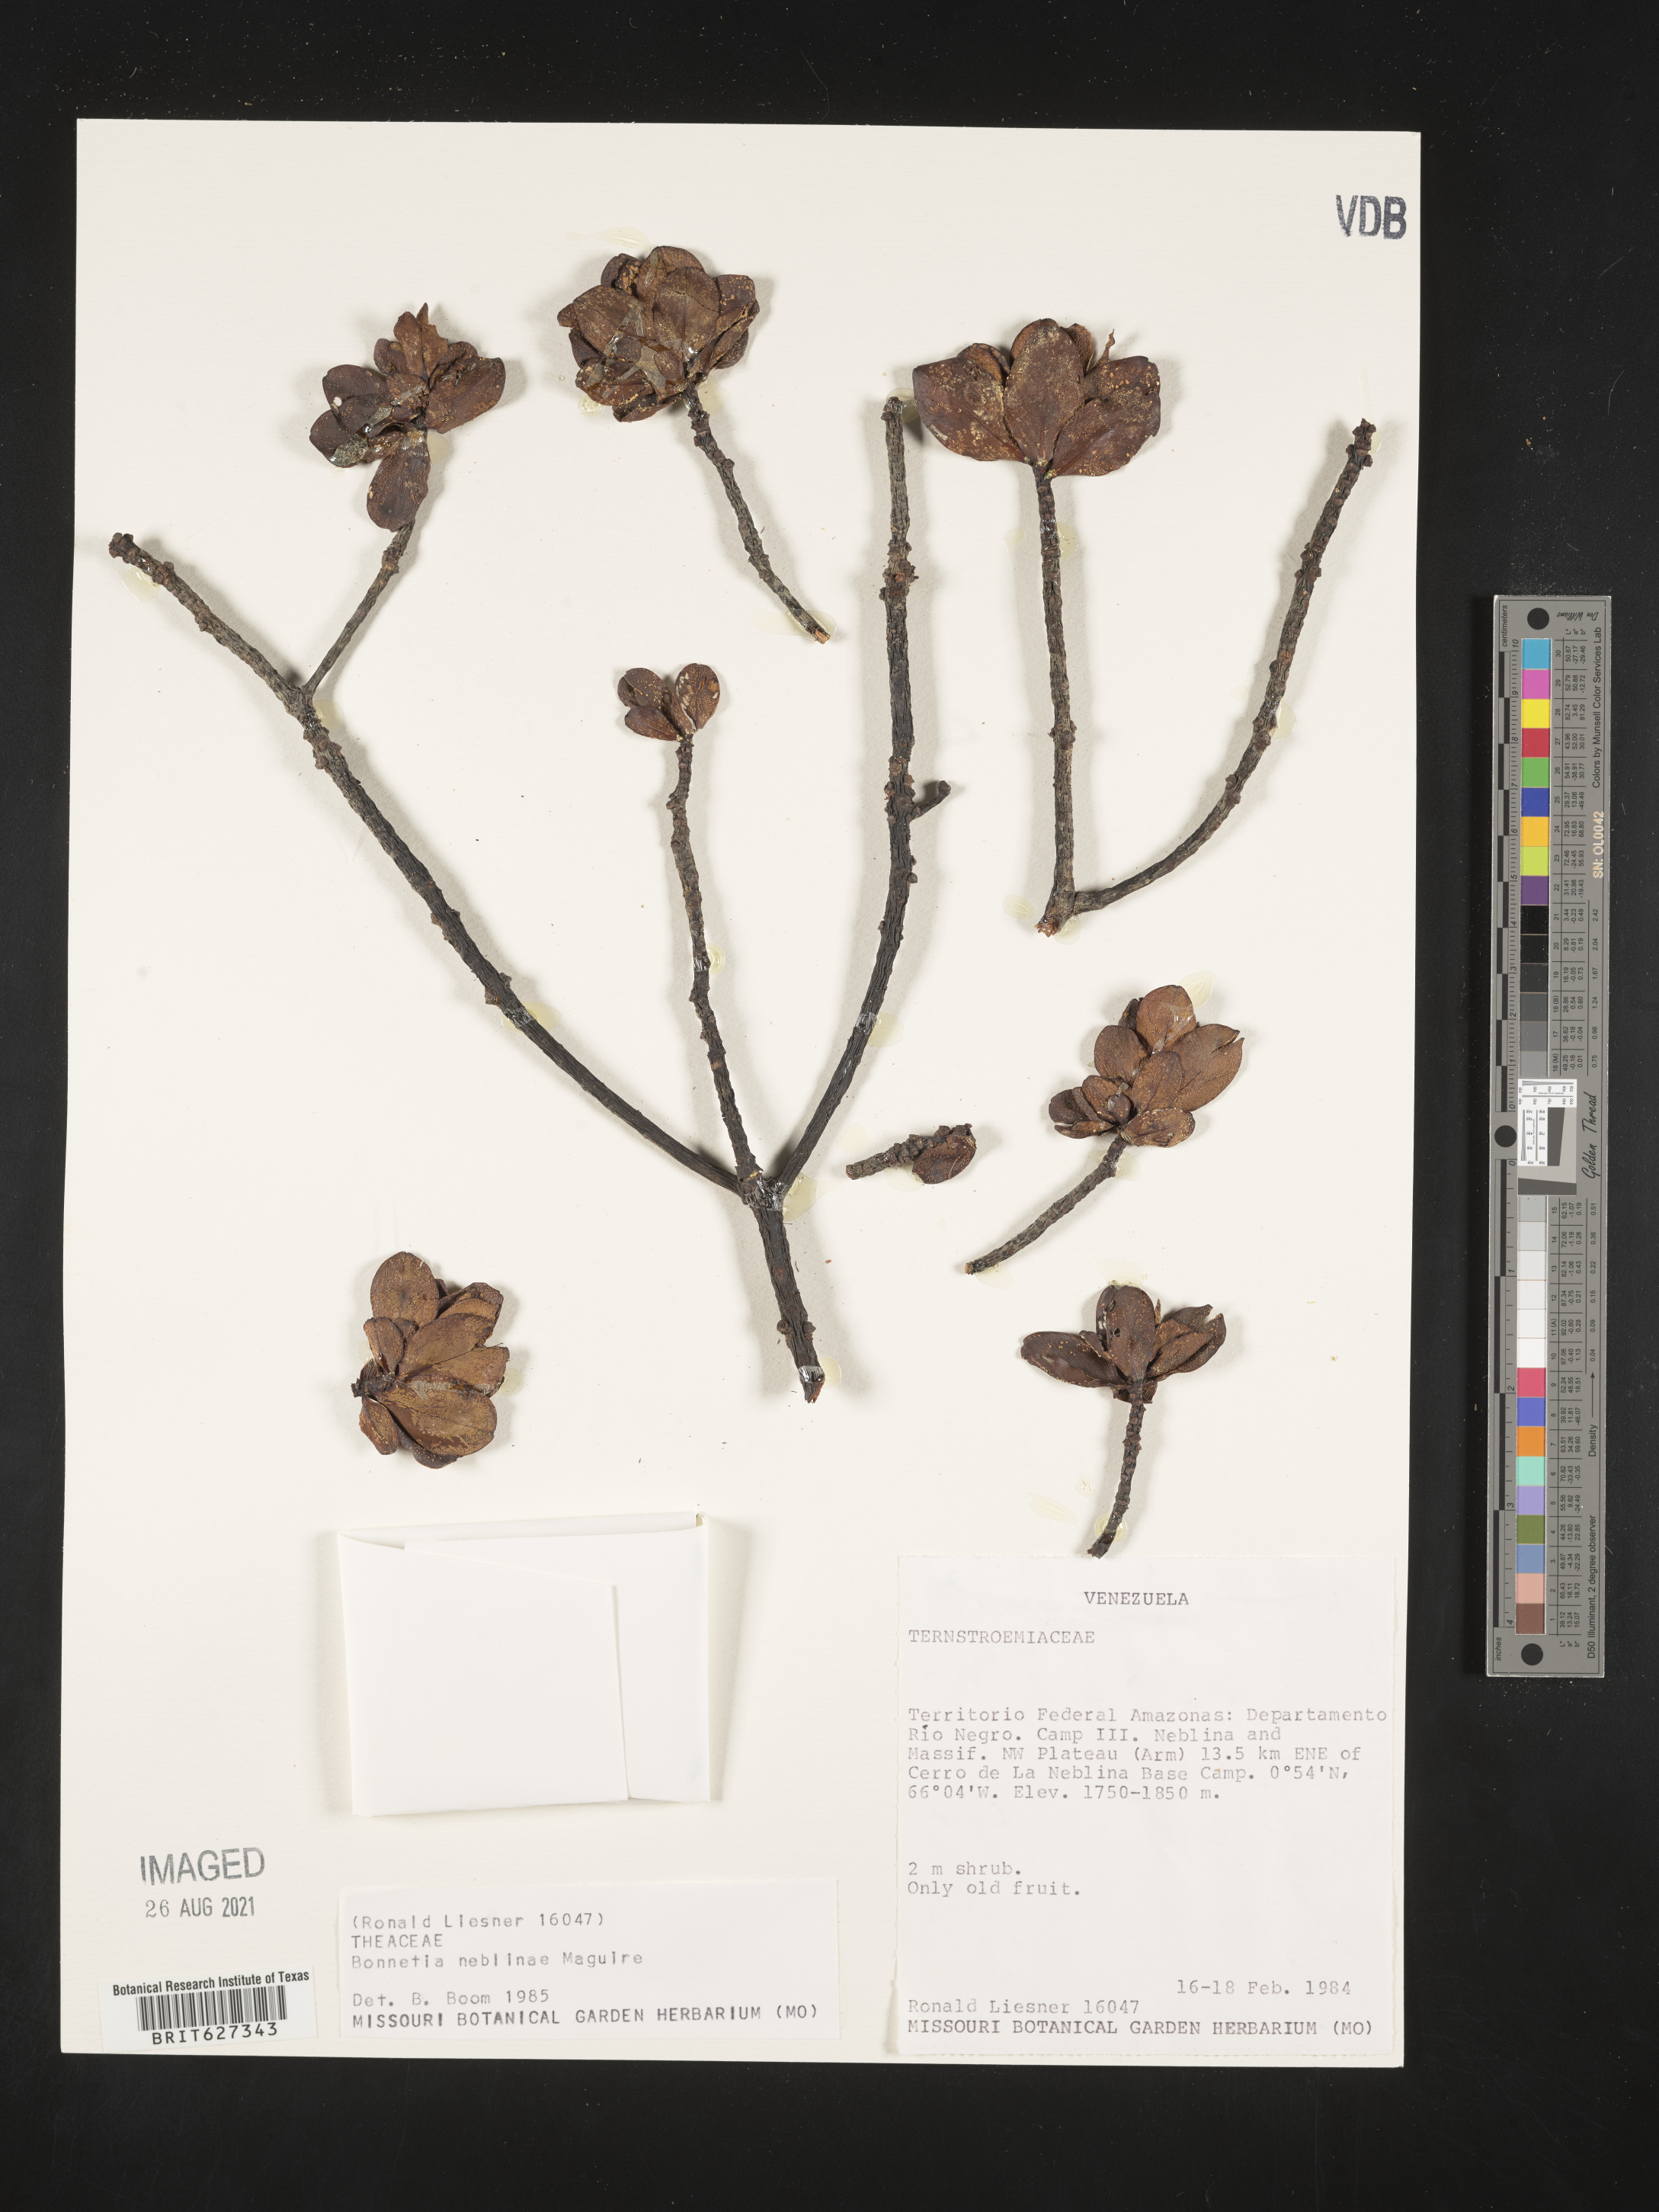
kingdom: Plantae
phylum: Tracheophyta
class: Magnoliopsida
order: Malpighiales
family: Bonnetiaceae
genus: Bonnetia
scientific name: Bonnetia neblinae
